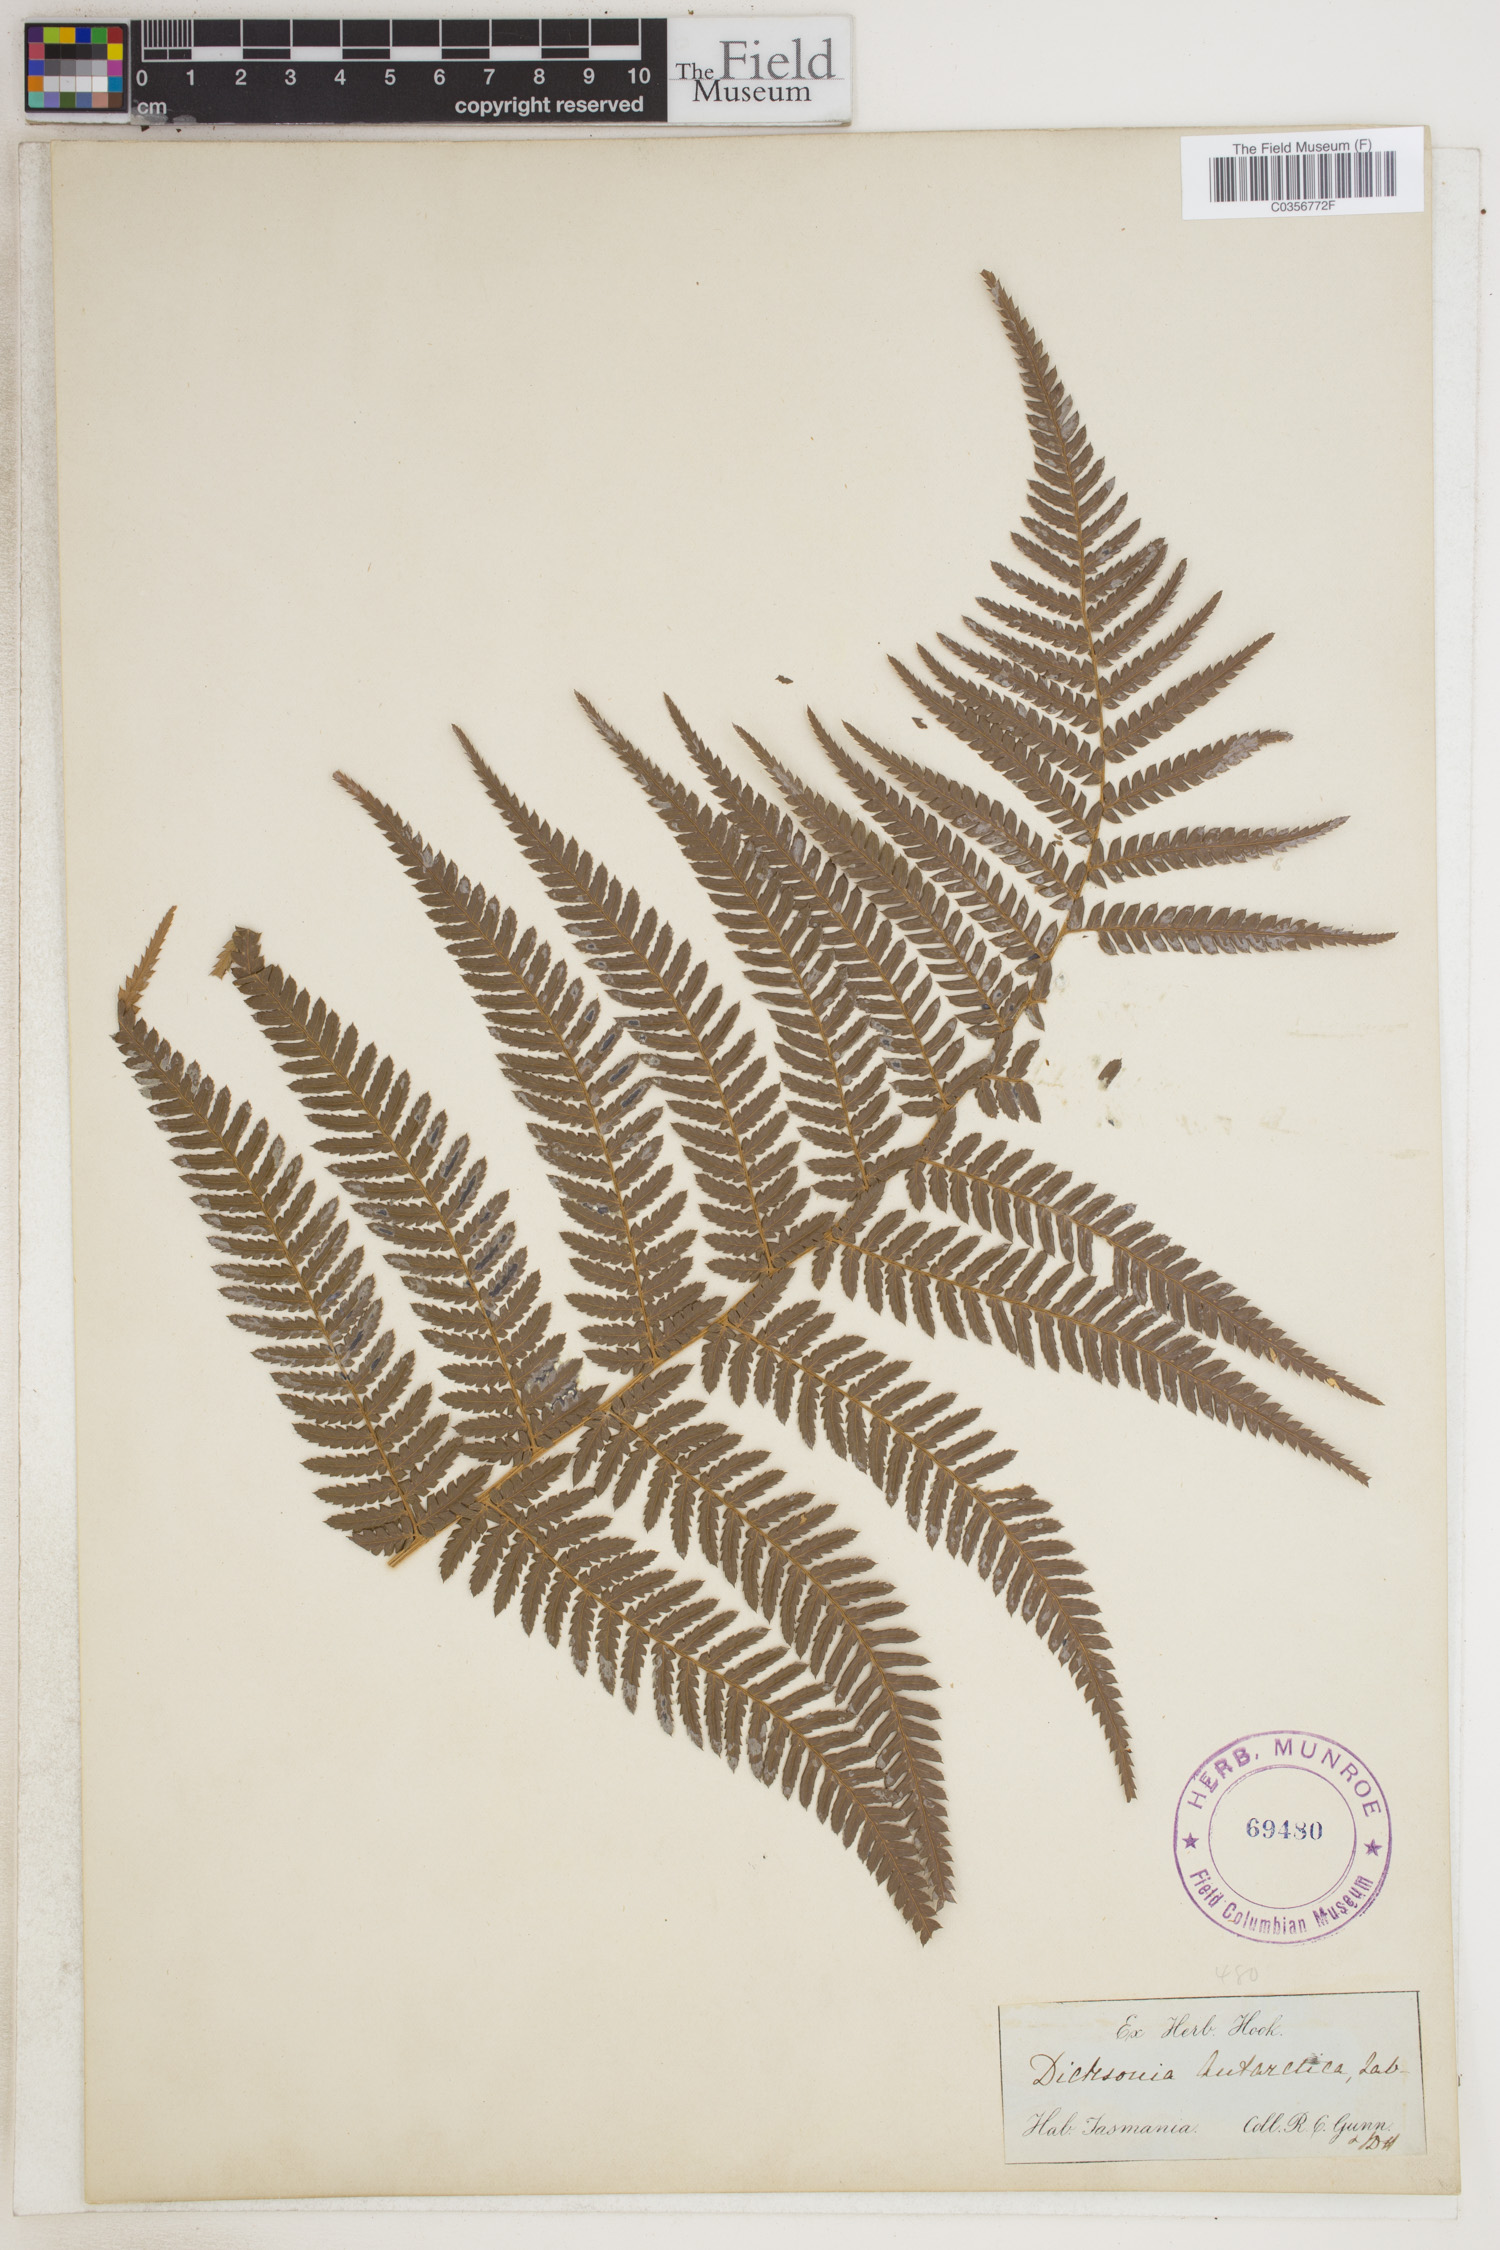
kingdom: Plantae
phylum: Tracheophyta
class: Polypodiopsida
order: Cyatheales
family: Dicksoniaceae
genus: Dicksonia
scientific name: Dicksonia antarctica
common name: Australian treefern
